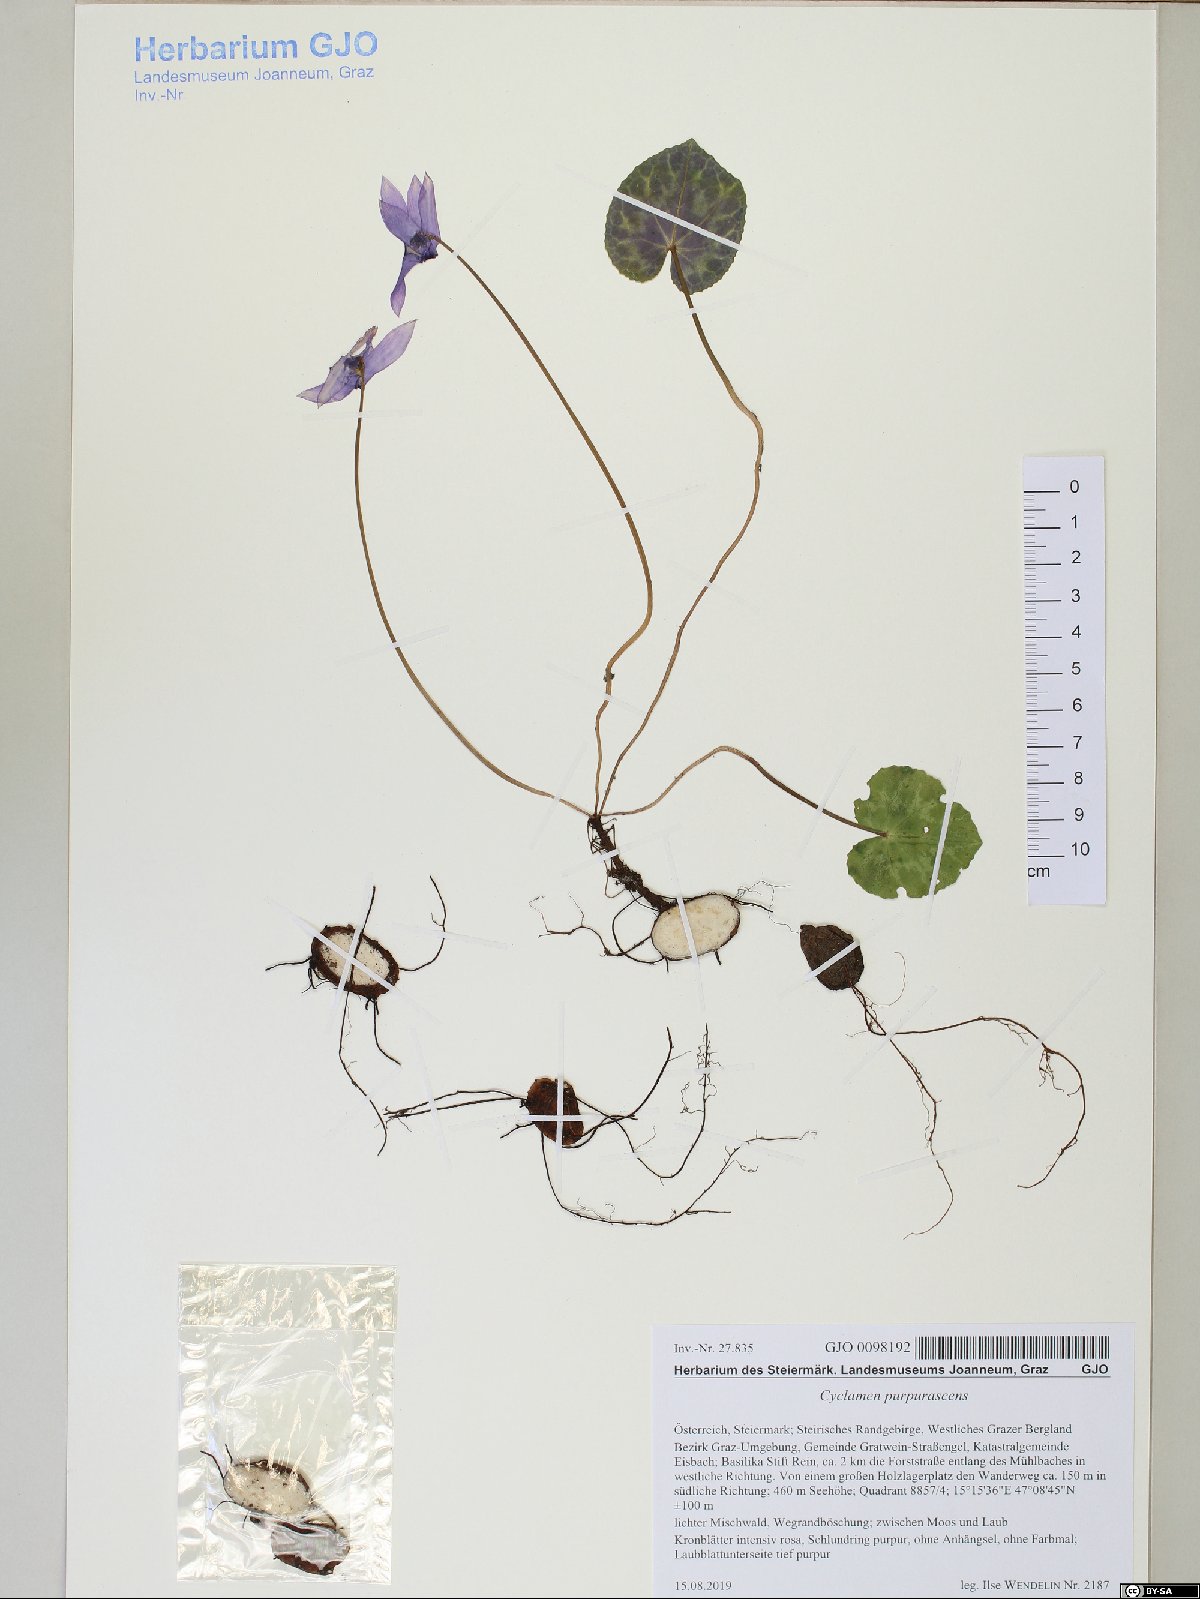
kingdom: Plantae
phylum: Tracheophyta
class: Magnoliopsida
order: Ericales
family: Primulaceae
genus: Cyclamen
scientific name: Cyclamen purpurascens
